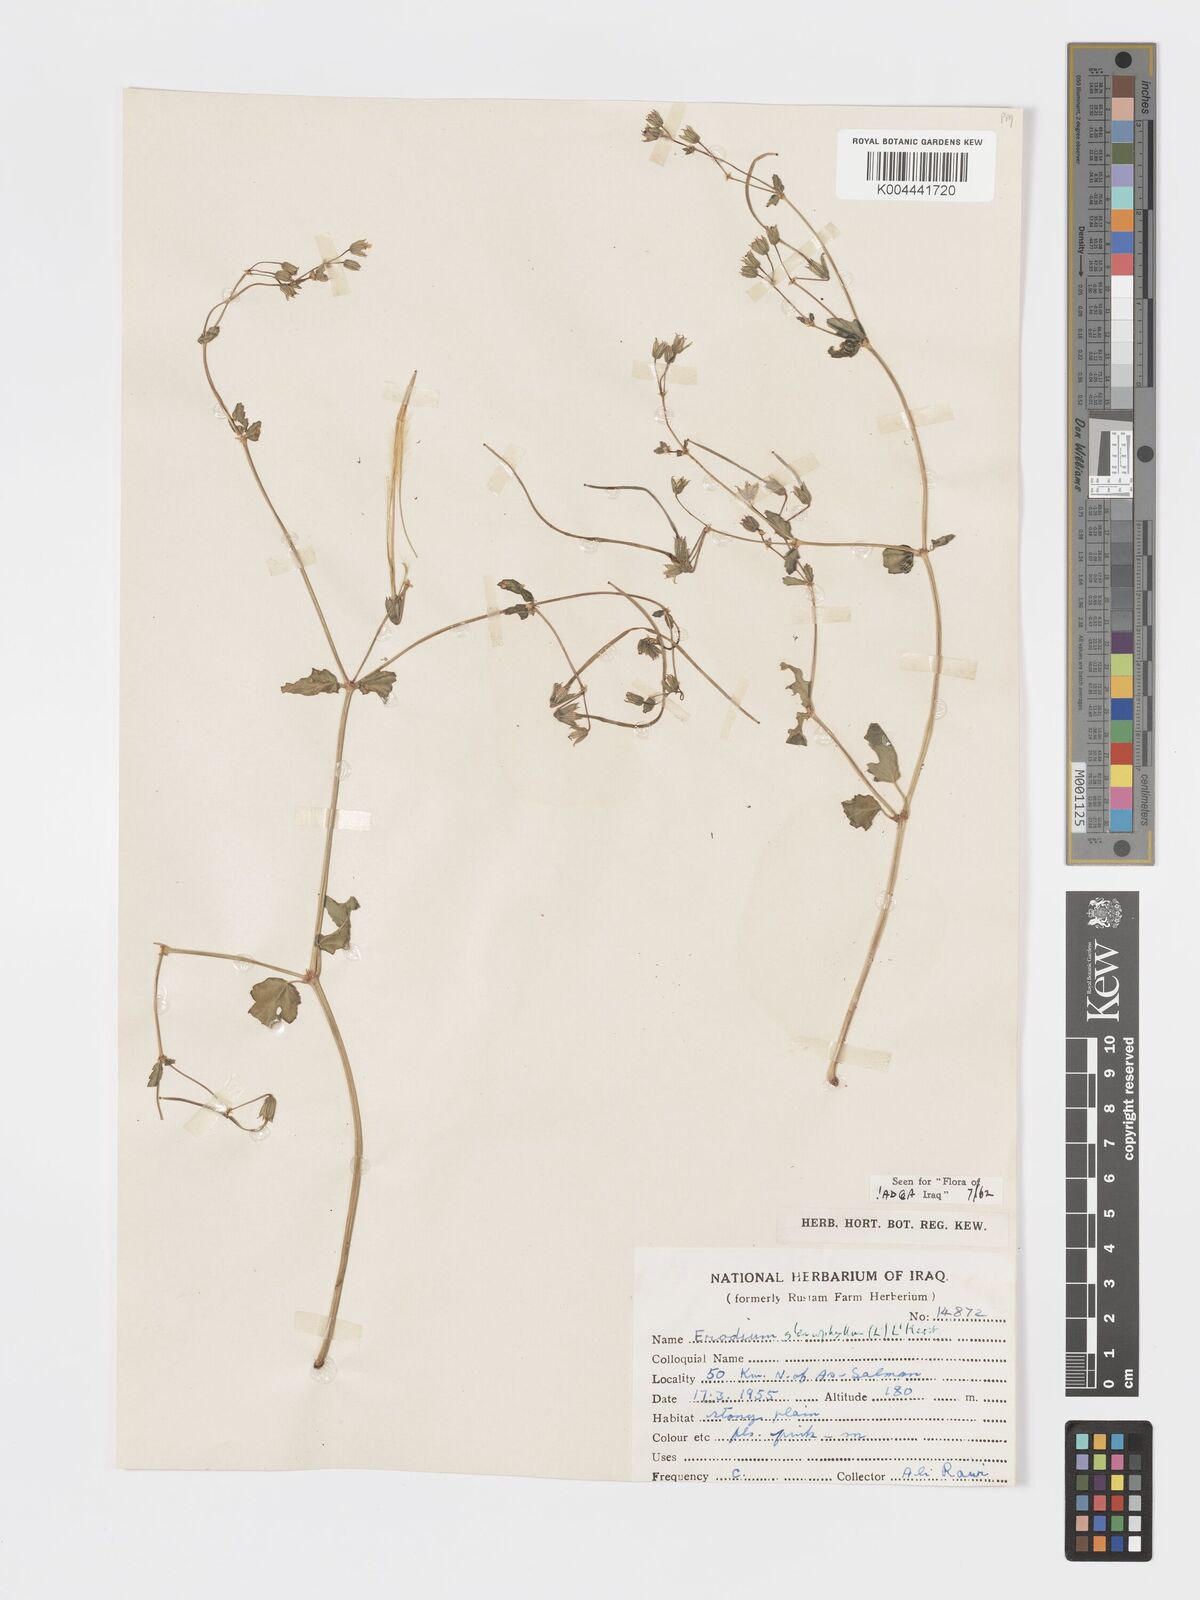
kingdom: Plantae
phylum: Tracheophyta
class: Magnoliopsida
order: Geraniales
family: Geraniaceae
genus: Erodium
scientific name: Erodium glaucophyllum
